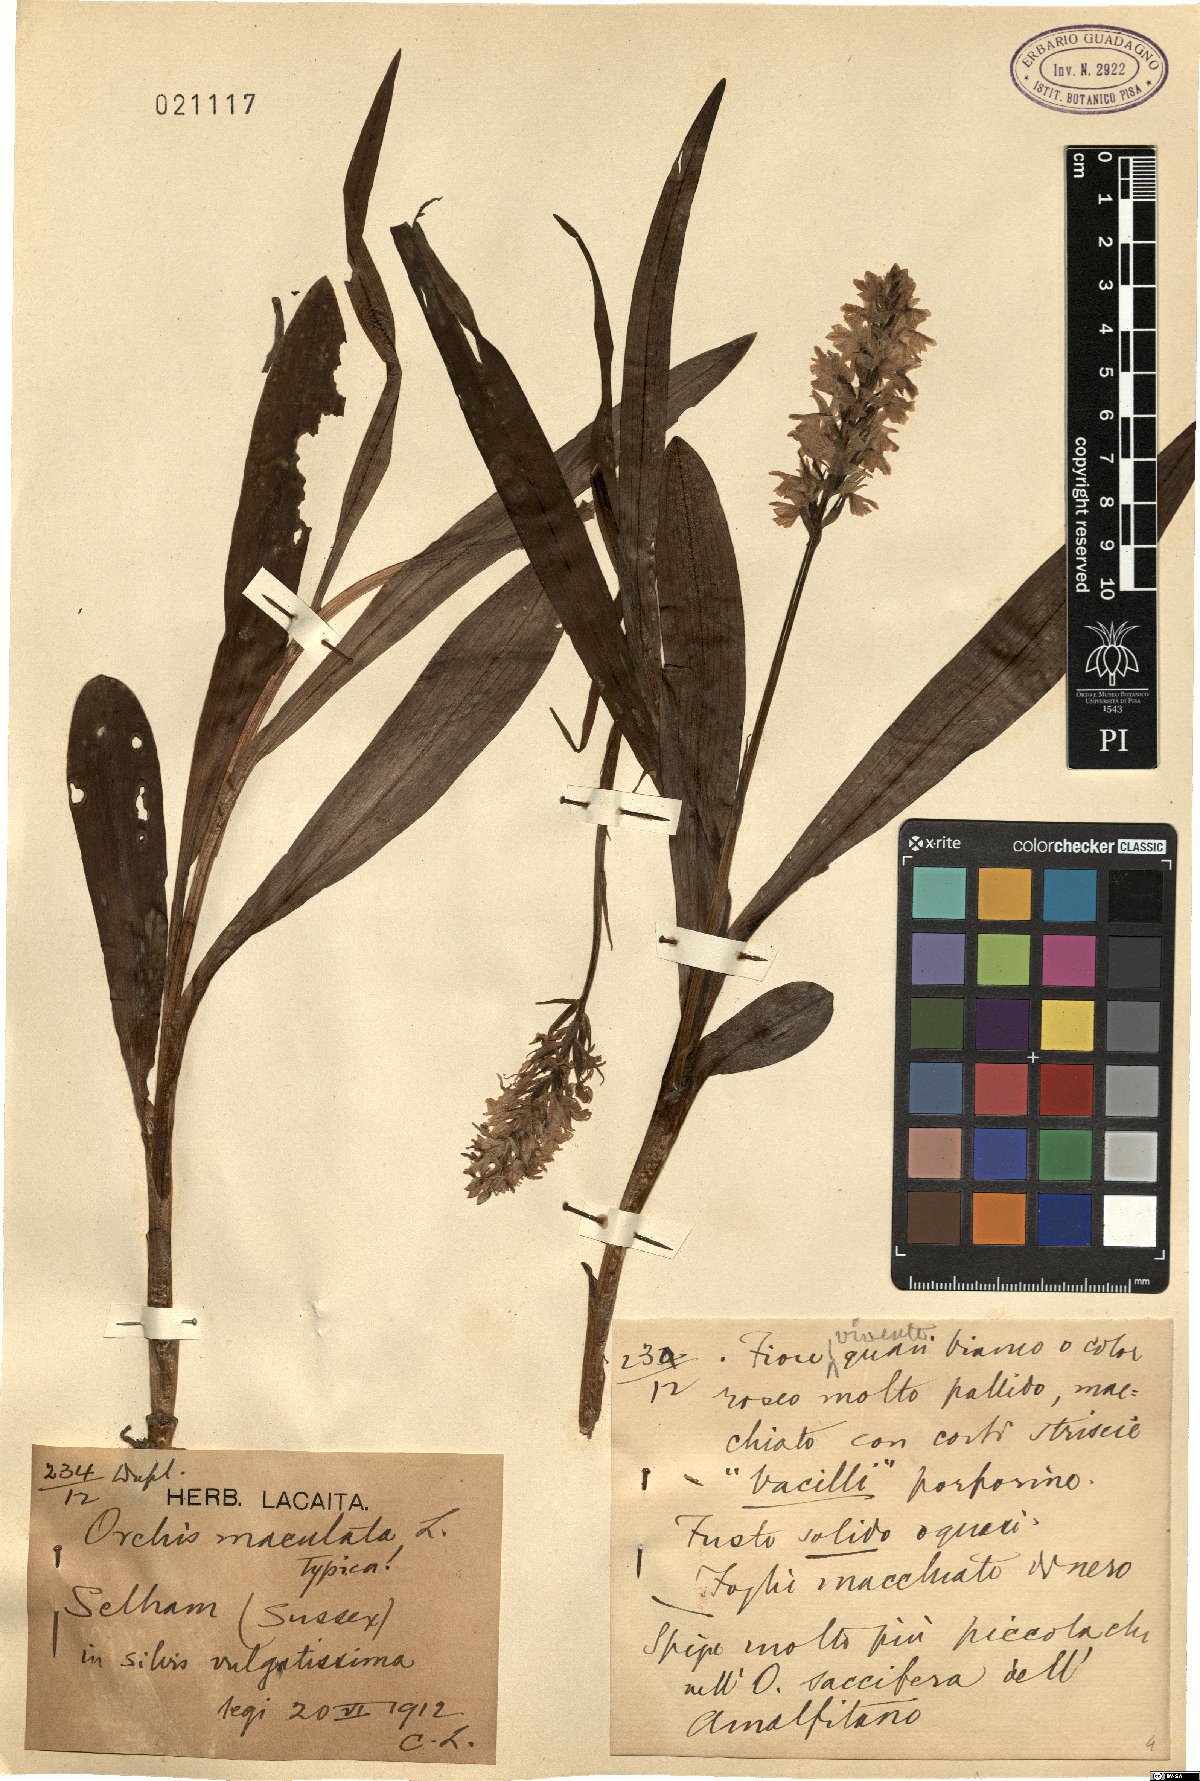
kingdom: Plantae
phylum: Tracheophyta
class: Liliopsida
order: Asparagales
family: Orchidaceae
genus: Dactylorhiza
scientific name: Dactylorhiza maculata
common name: Heath spotted-orchid
